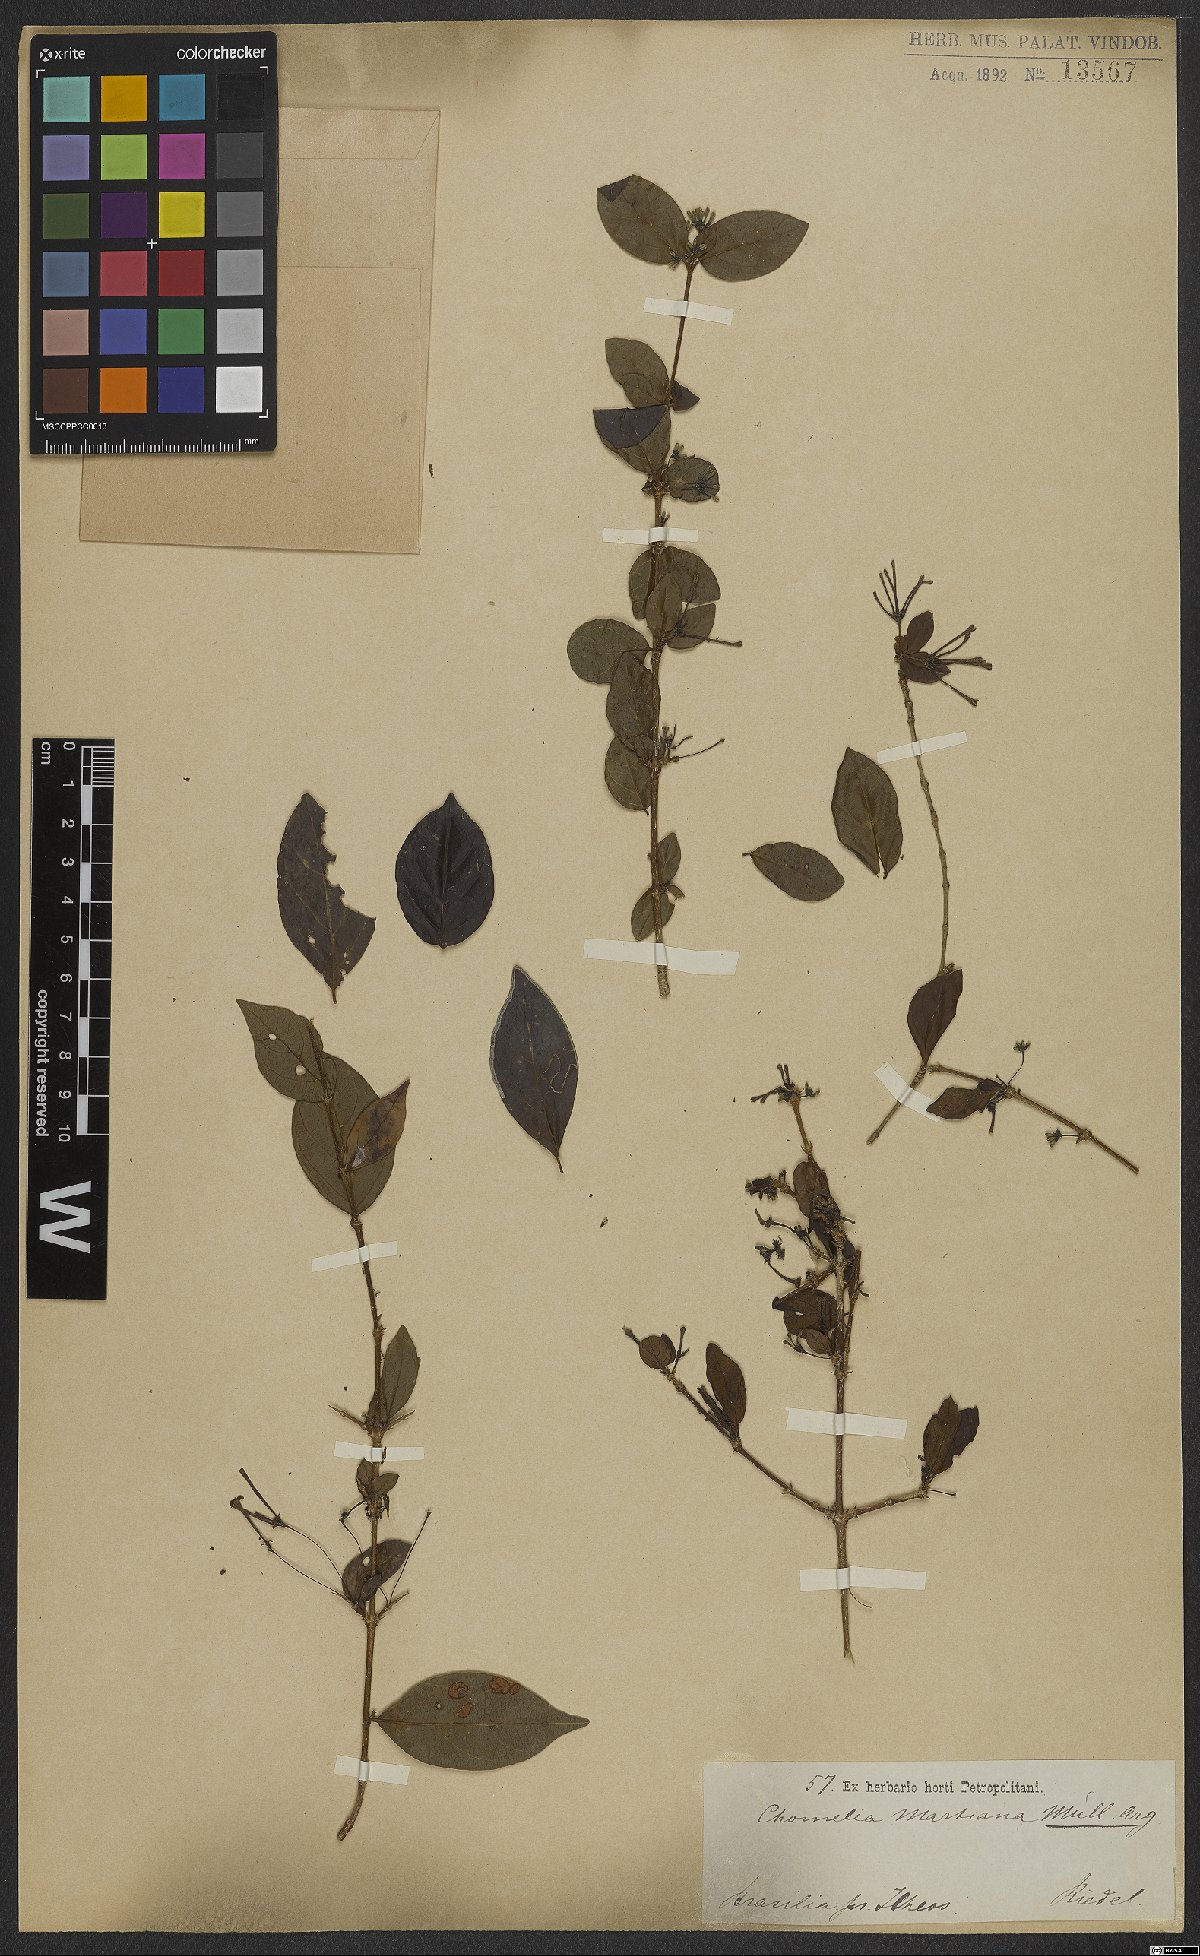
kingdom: Plantae
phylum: Tracheophyta
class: Magnoliopsida
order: Gentianales
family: Rubiaceae
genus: Chomelia
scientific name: Chomelia obtusa
